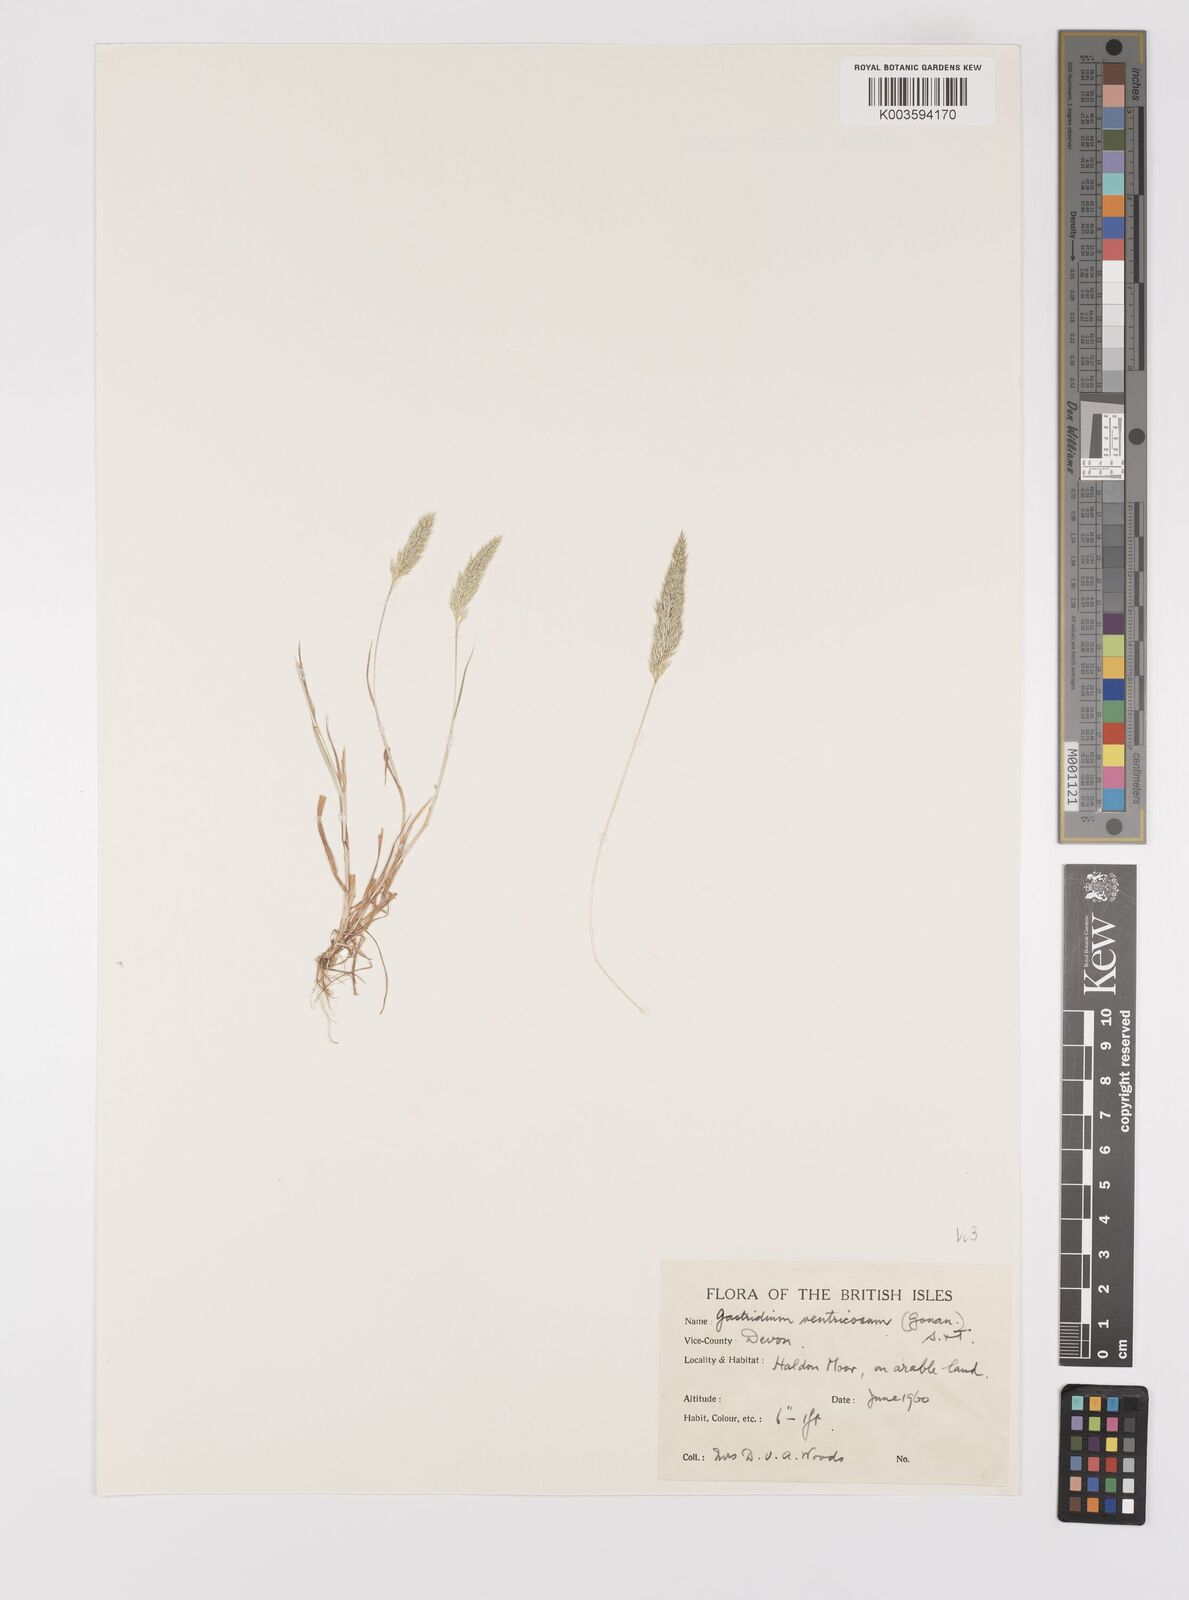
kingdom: Plantae
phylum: Tracheophyta
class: Liliopsida
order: Poales
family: Poaceae
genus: Gastridium
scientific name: Gastridium ventricosum
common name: Nit-grass
